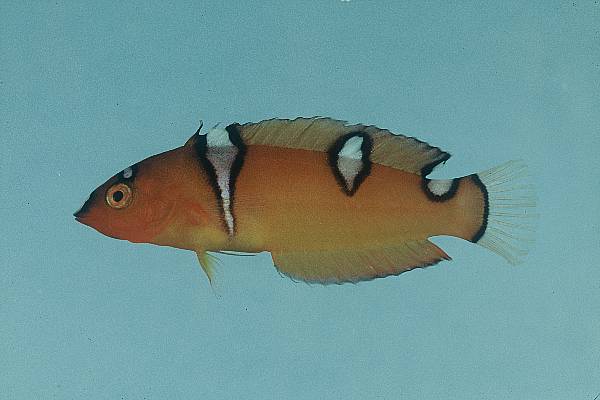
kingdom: Animalia
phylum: Chordata
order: Perciformes
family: Labridae
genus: Coris
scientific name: Coris gaimard
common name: Yellowtail coris
